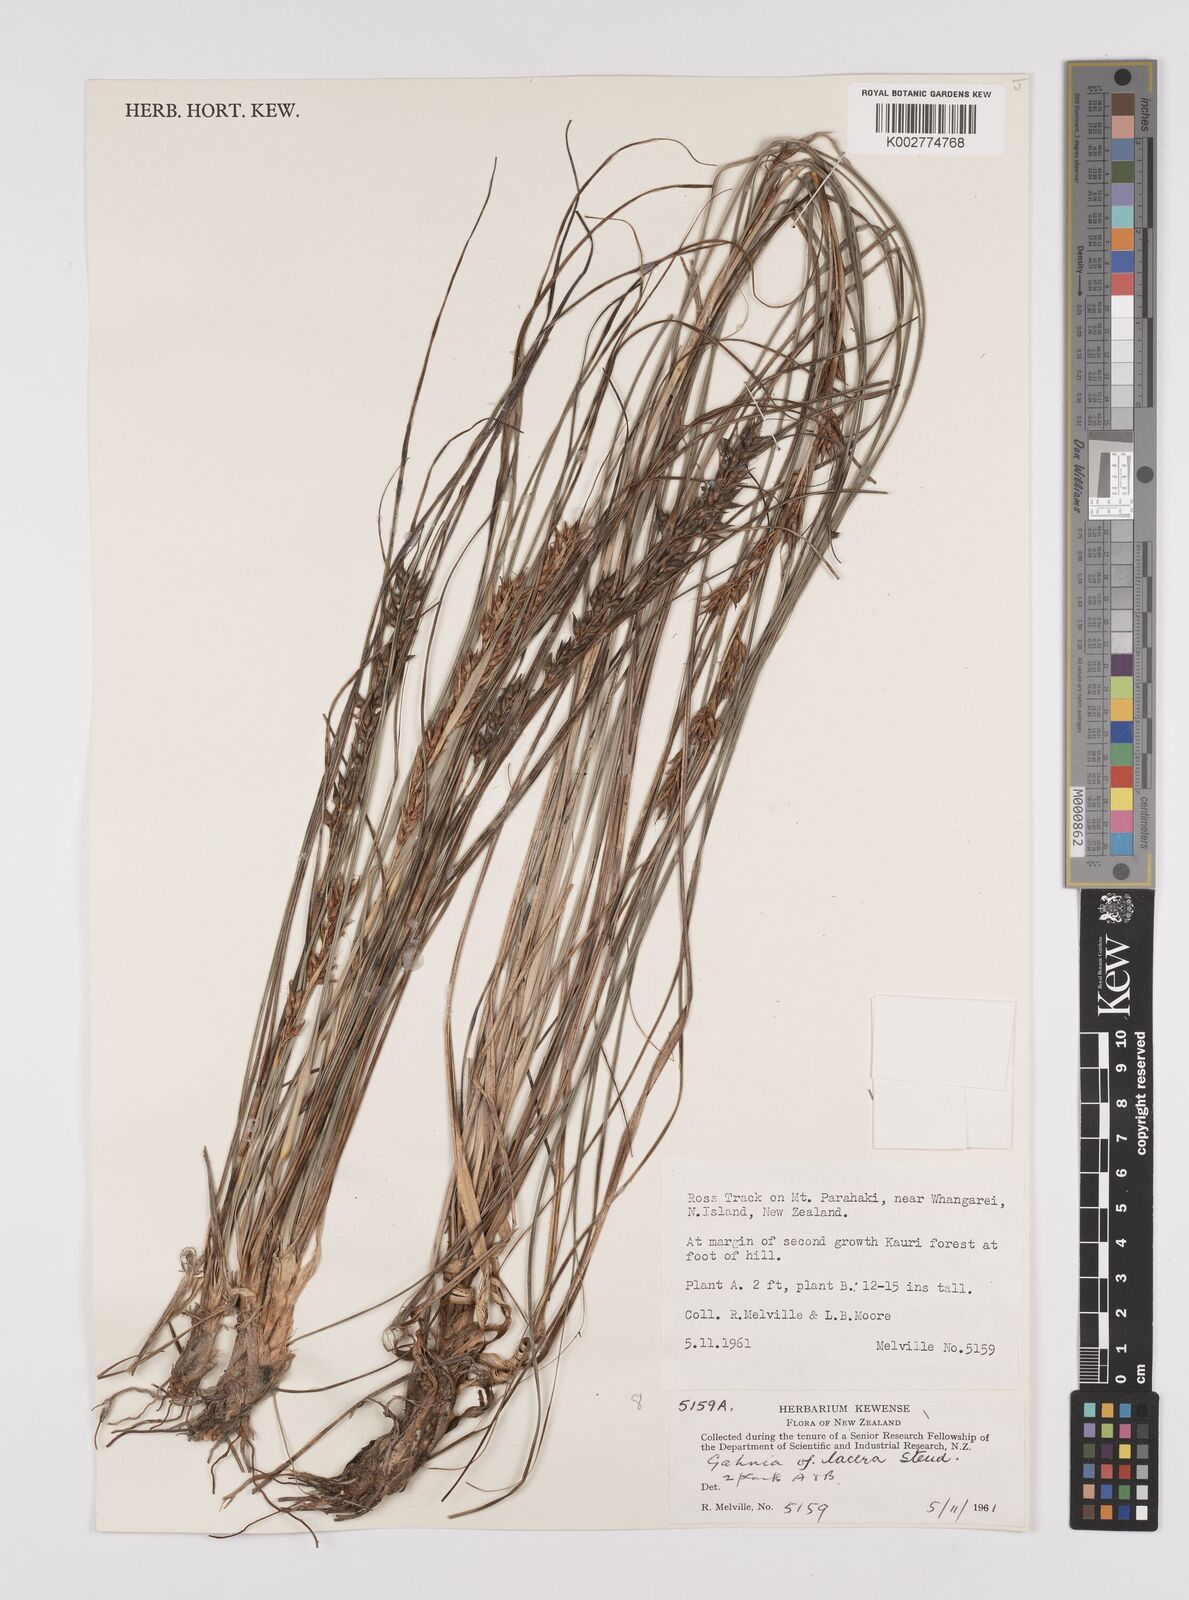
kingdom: Plantae
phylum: Tracheophyta
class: Liliopsida
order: Poales
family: Cyperaceae
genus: Gahnia
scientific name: Gahnia lacera
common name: Sawsedge
